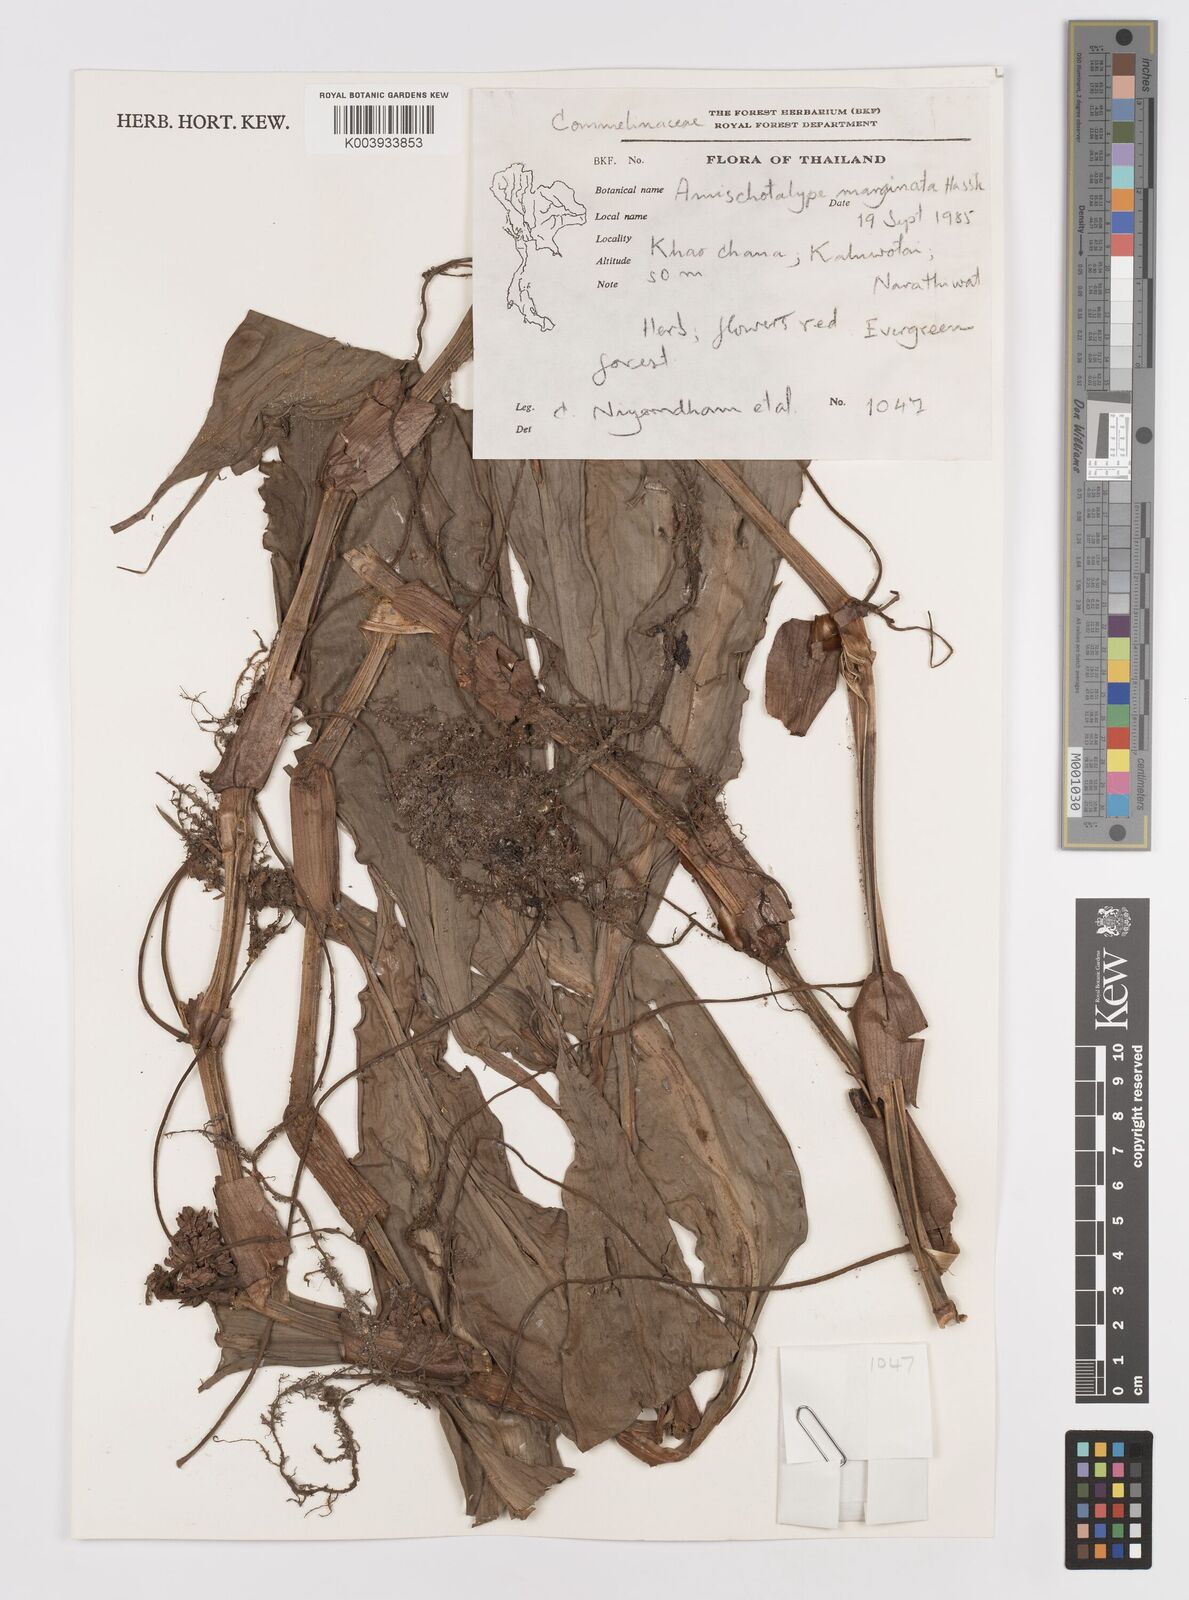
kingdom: Plantae
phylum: Tracheophyta
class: Liliopsida
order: Commelinales
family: Commelinaceae
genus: Amischotolype
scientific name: Amischotolype marginata
